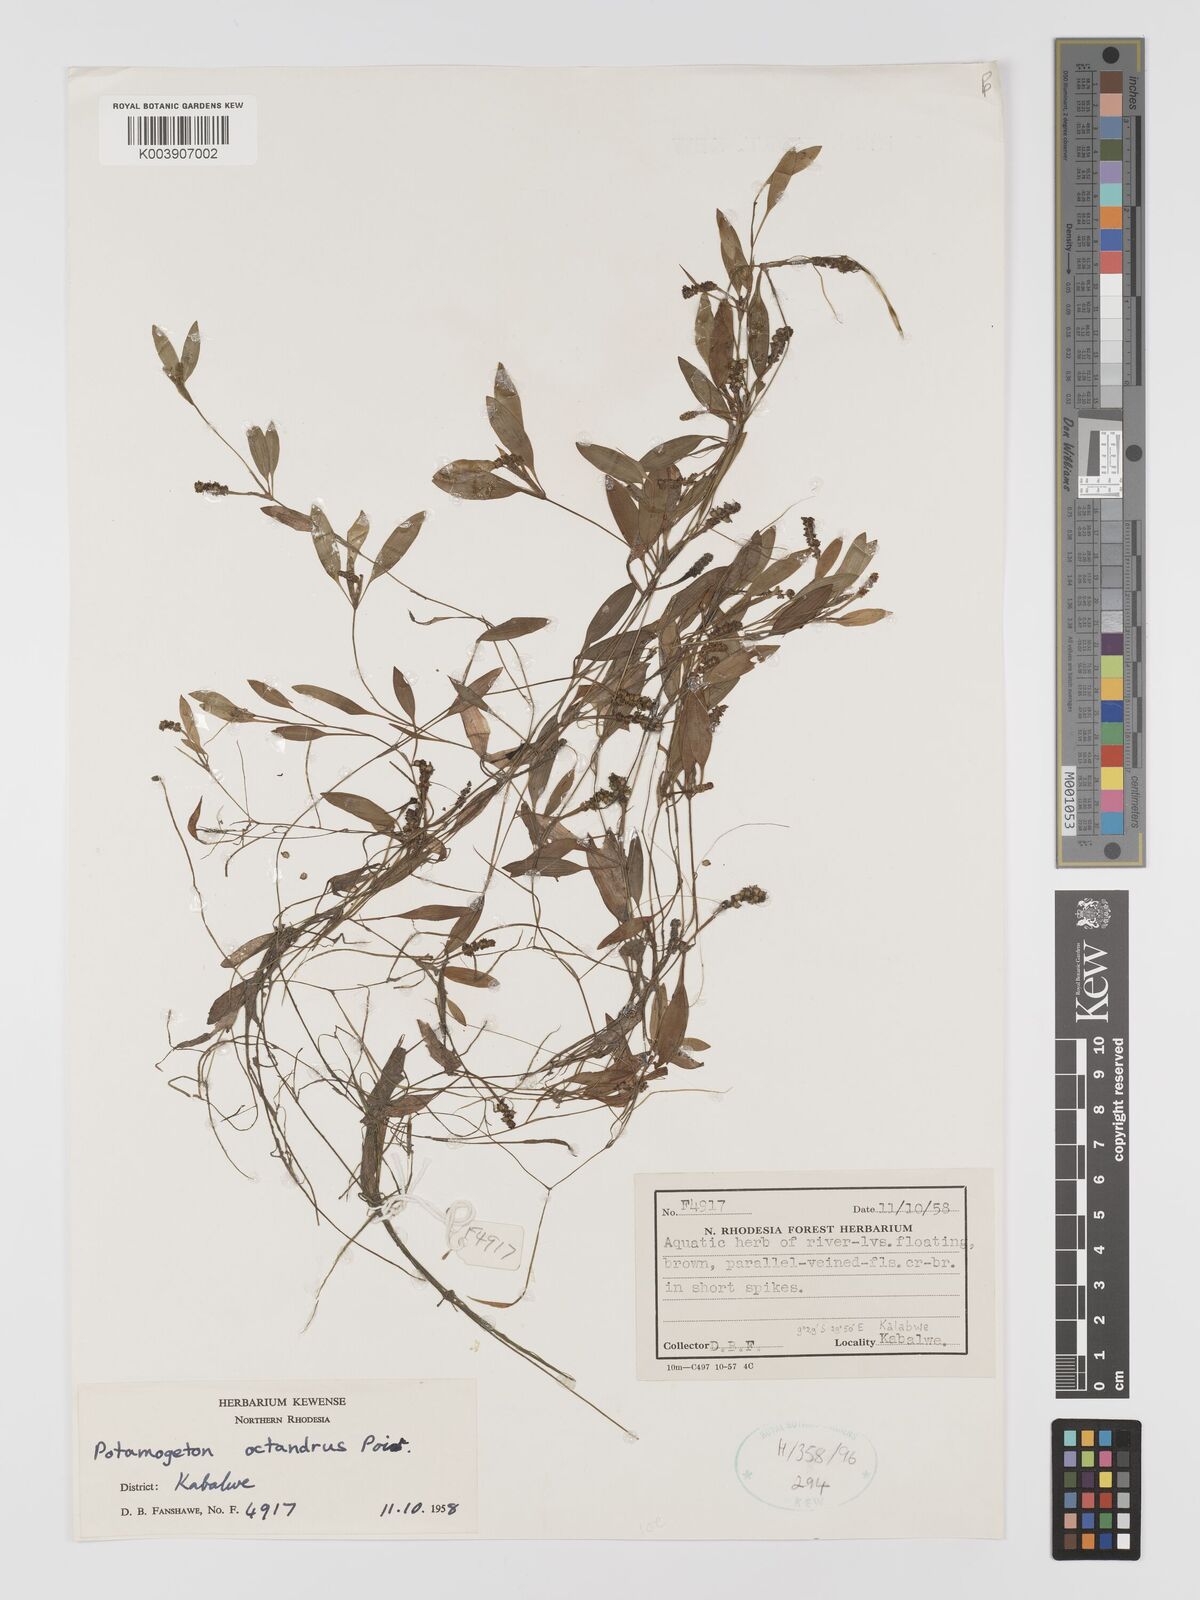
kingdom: Plantae
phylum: Tracheophyta
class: Liliopsida
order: Alismatales
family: Potamogetonaceae
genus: Potamogeton
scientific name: Potamogeton octandrus
